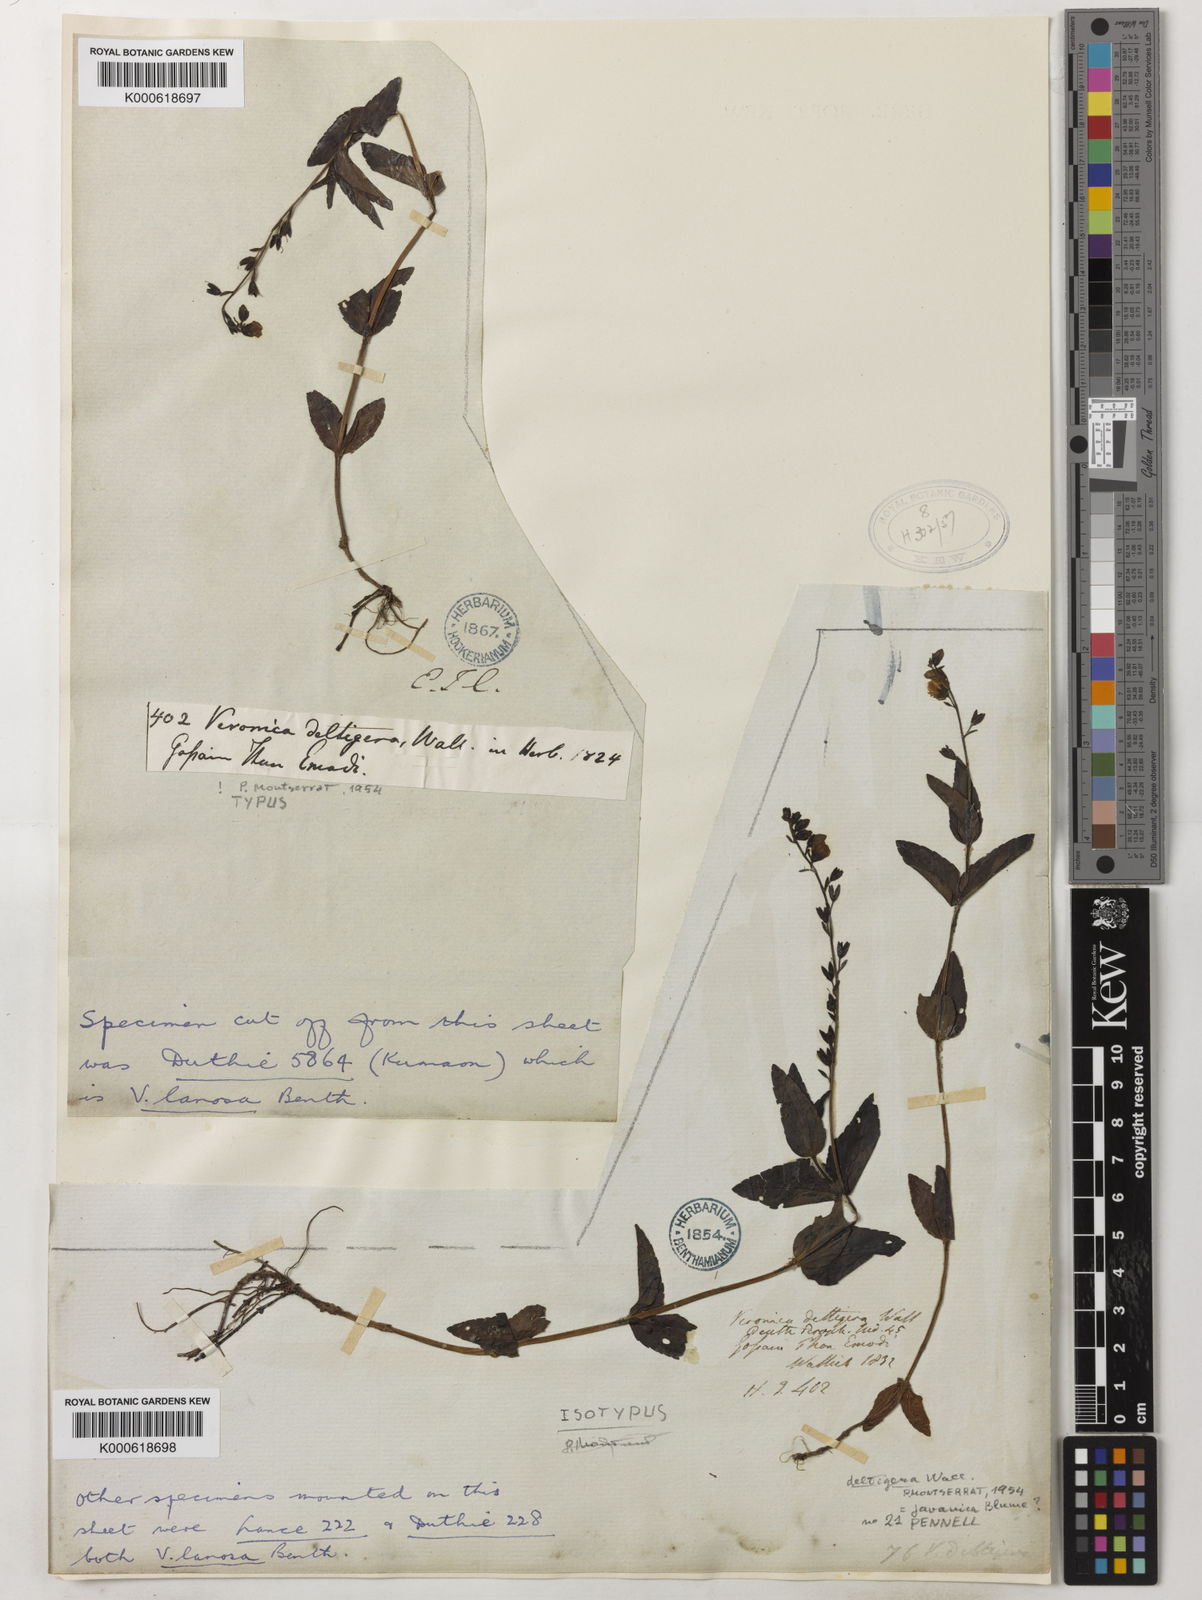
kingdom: Plantae
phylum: Tracheophyta
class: Magnoliopsida
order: Lamiales
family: Plantaginaceae
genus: Veronica
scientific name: Veronica
